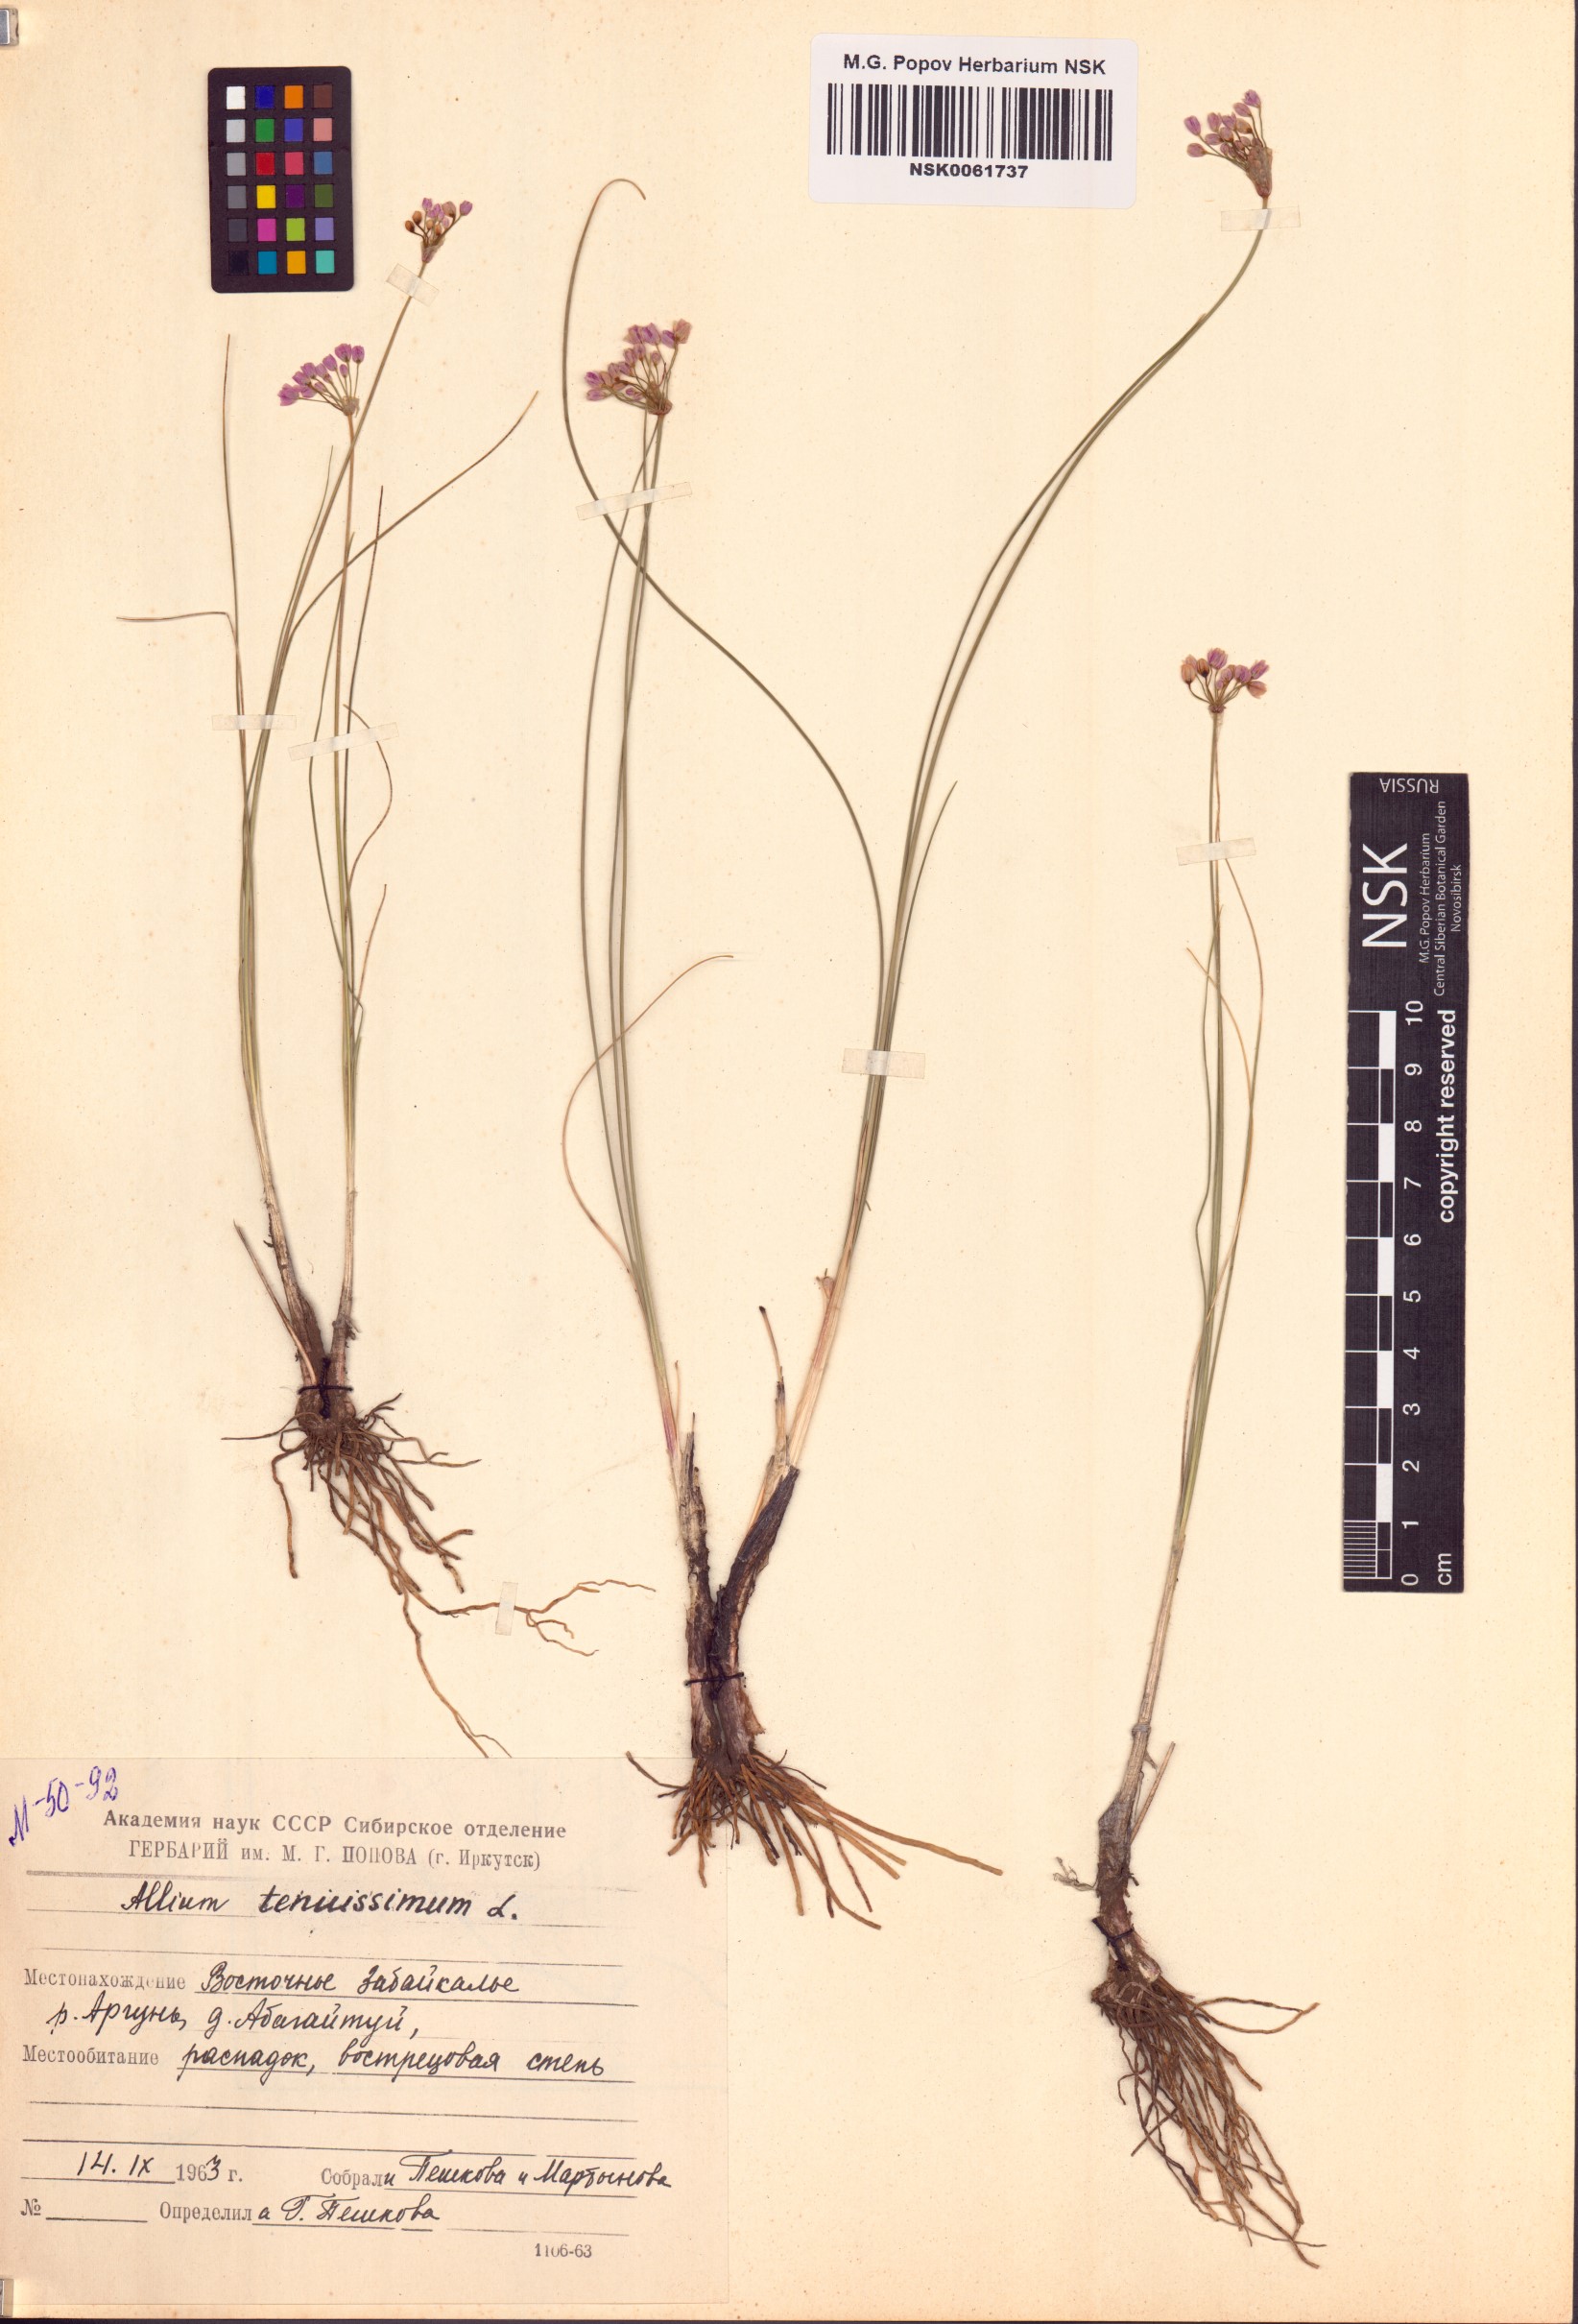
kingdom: Plantae
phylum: Tracheophyta
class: Liliopsida
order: Asparagales
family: Amaryllidaceae
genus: Allium
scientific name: Allium tenuissimum
